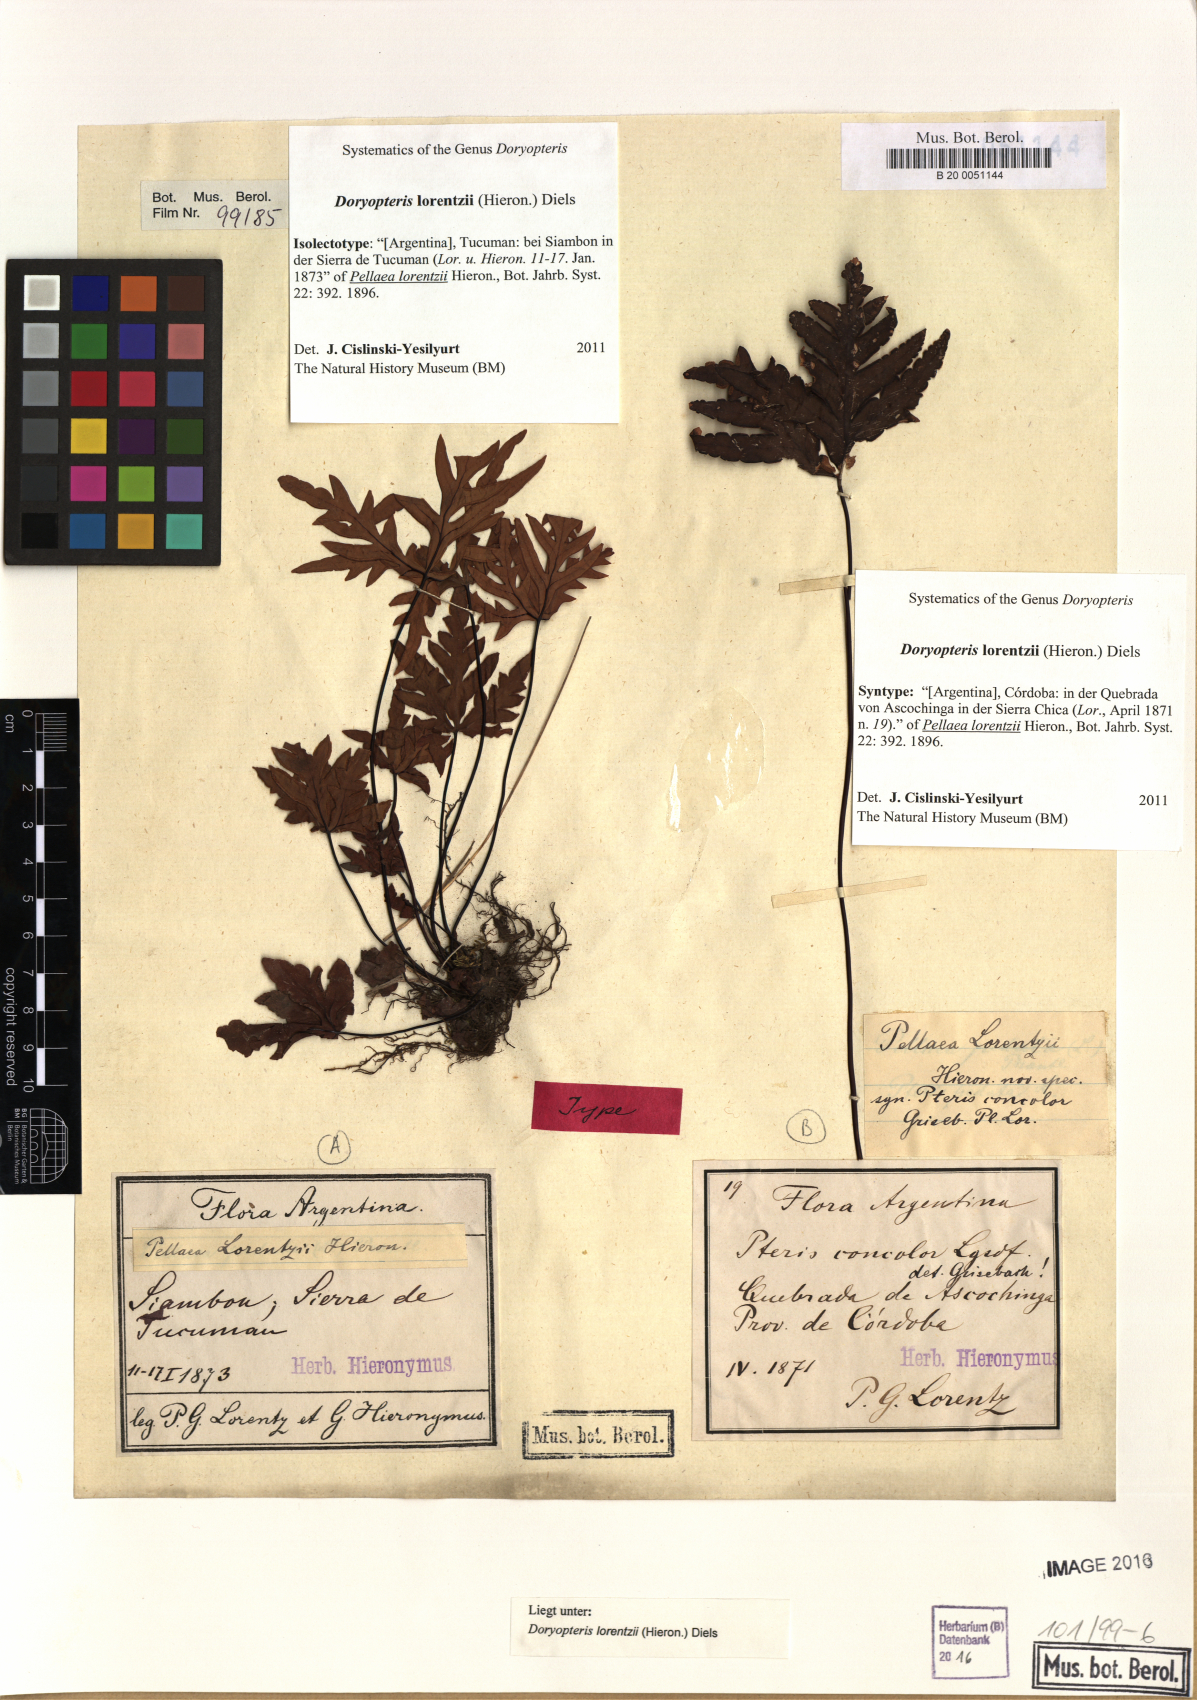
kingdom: Plantae
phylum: Tracheophyta
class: Polypodiopsida
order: Polypodiales
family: Pteridaceae
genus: Doryopteris
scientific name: Doryopteris lorentzii
